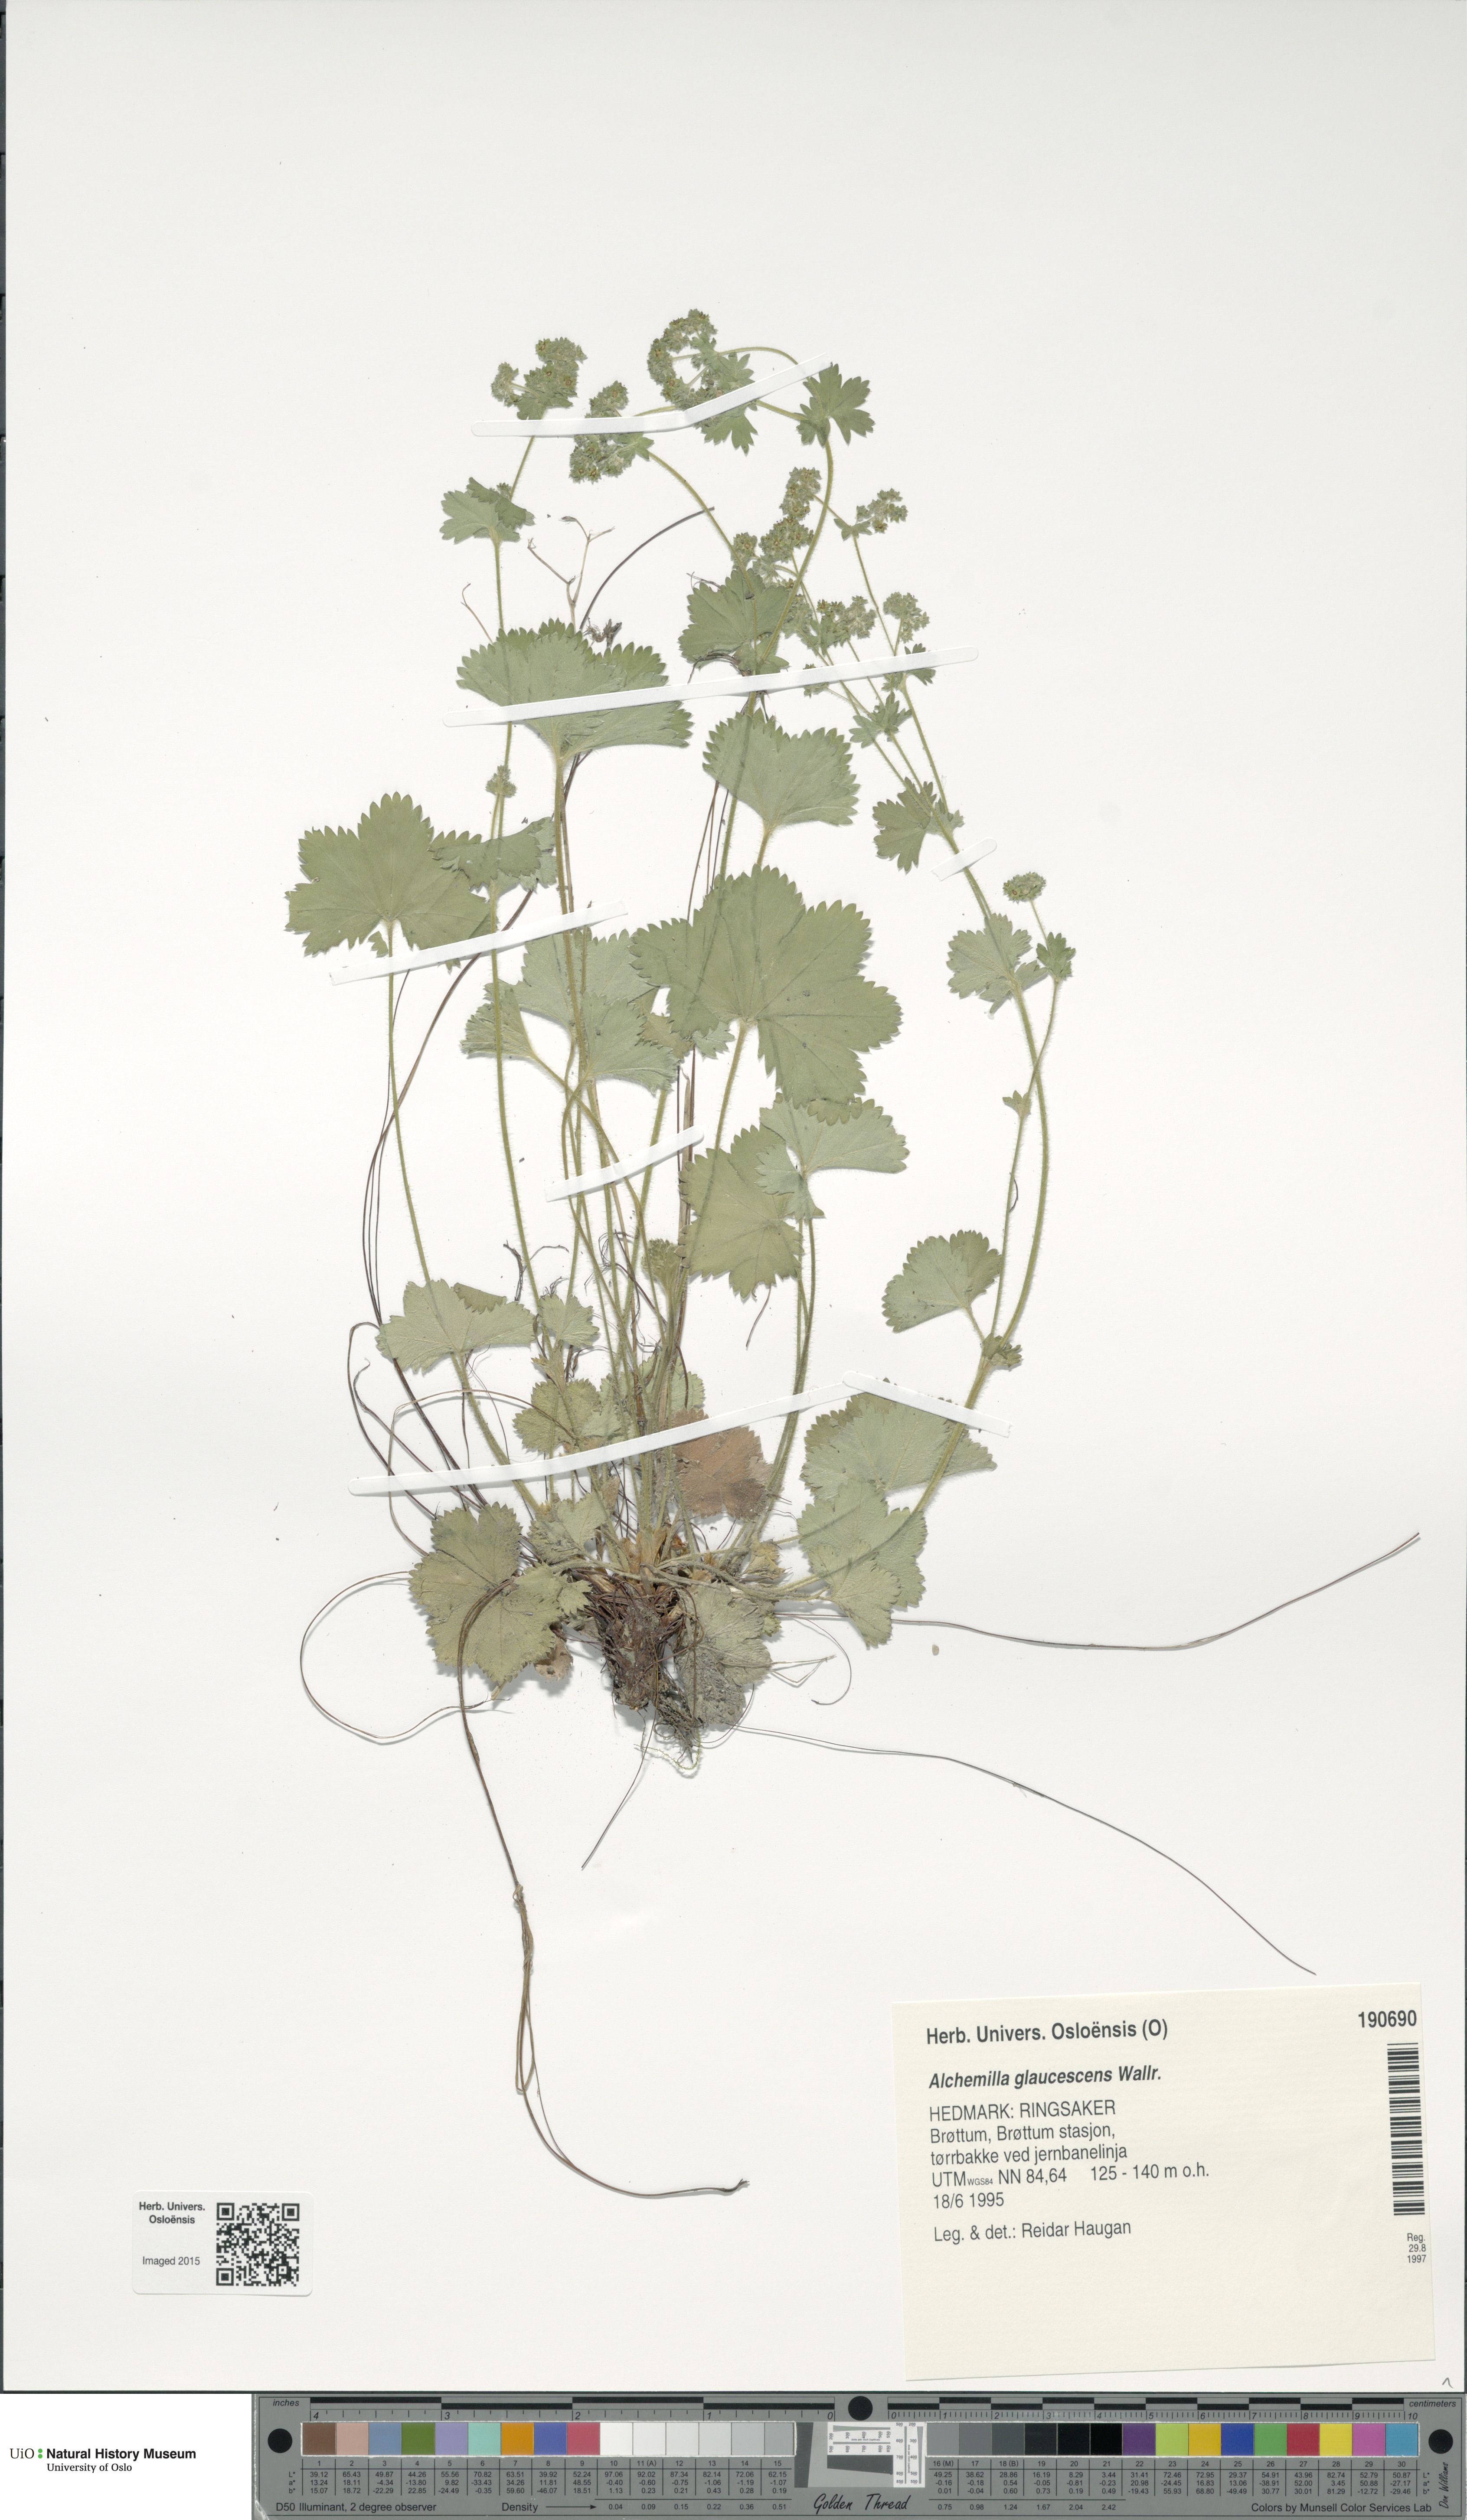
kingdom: Plantae
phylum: Tracheophyta
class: Magnoliopsida
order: Rosales
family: Rosaceae
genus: Alchemilla
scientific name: Alchemilla glaucescens
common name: Silky lady's mantle
